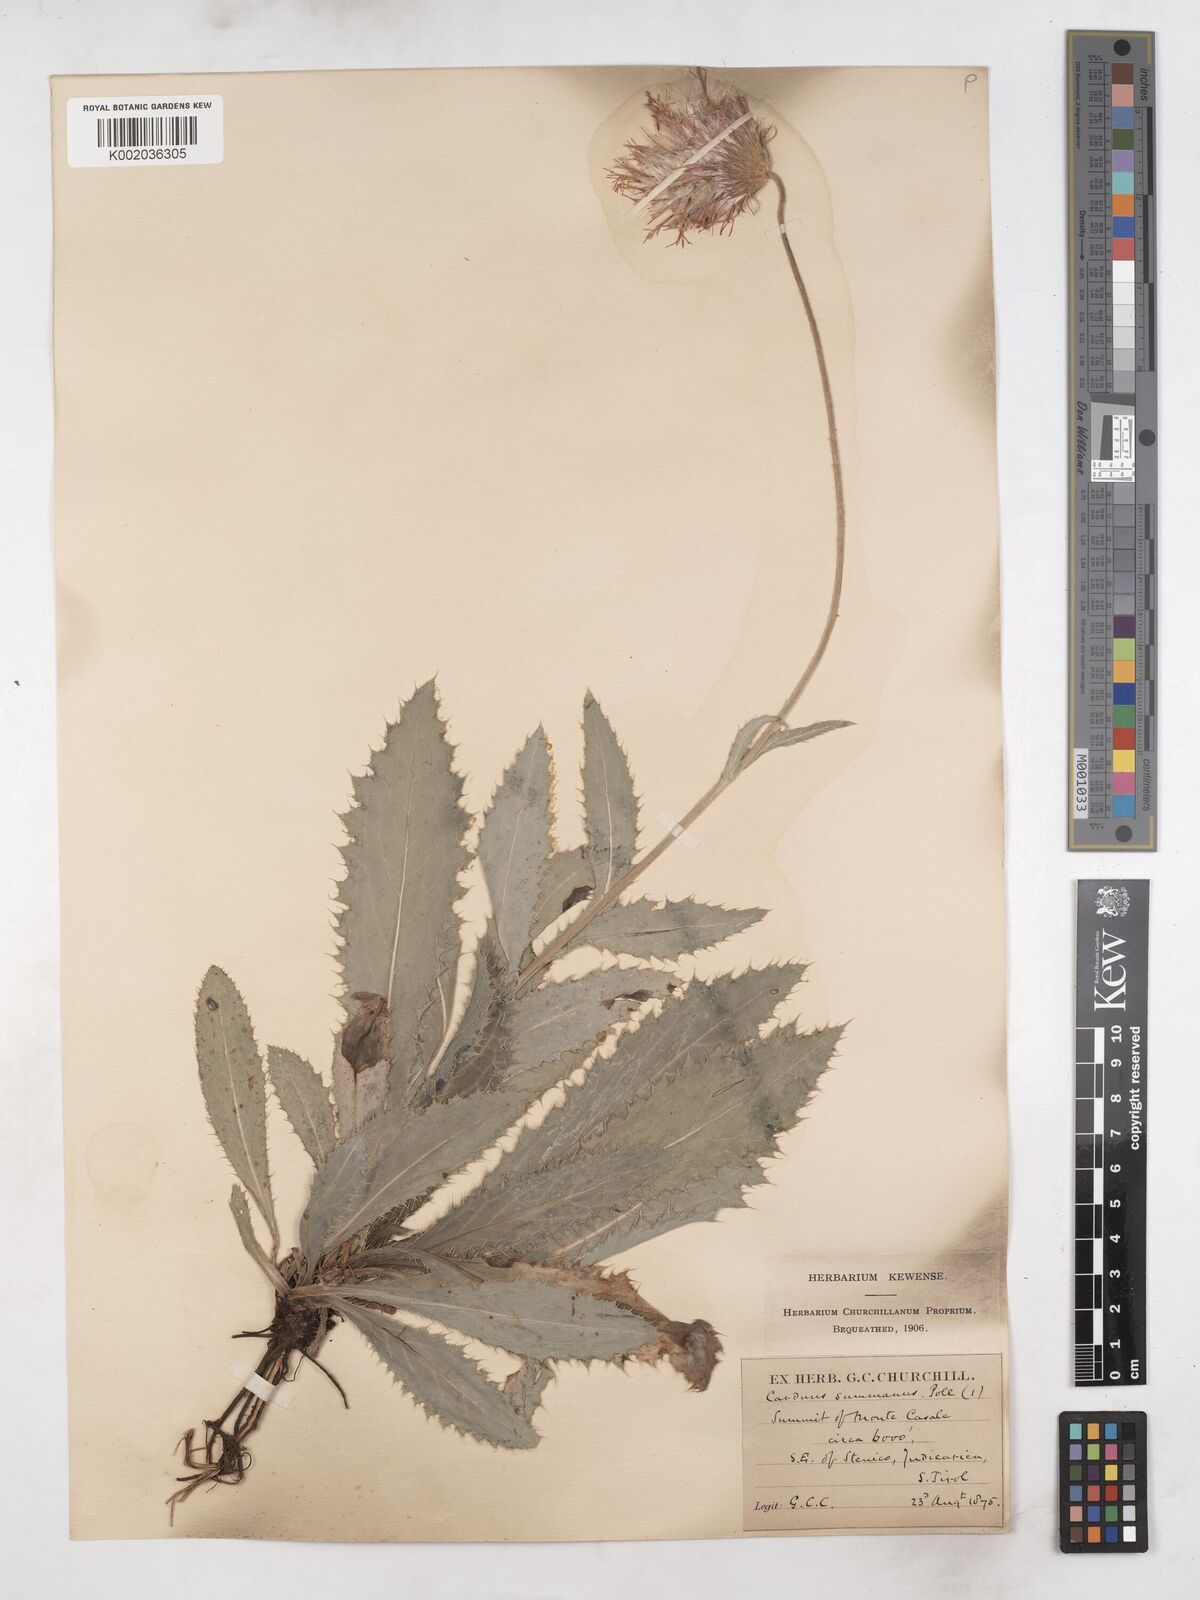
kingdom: Plantae
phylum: Tracheophyta
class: Magnoliopsida
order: Asterales
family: Asteraceae
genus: Carduus
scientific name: Carduus defloratus
